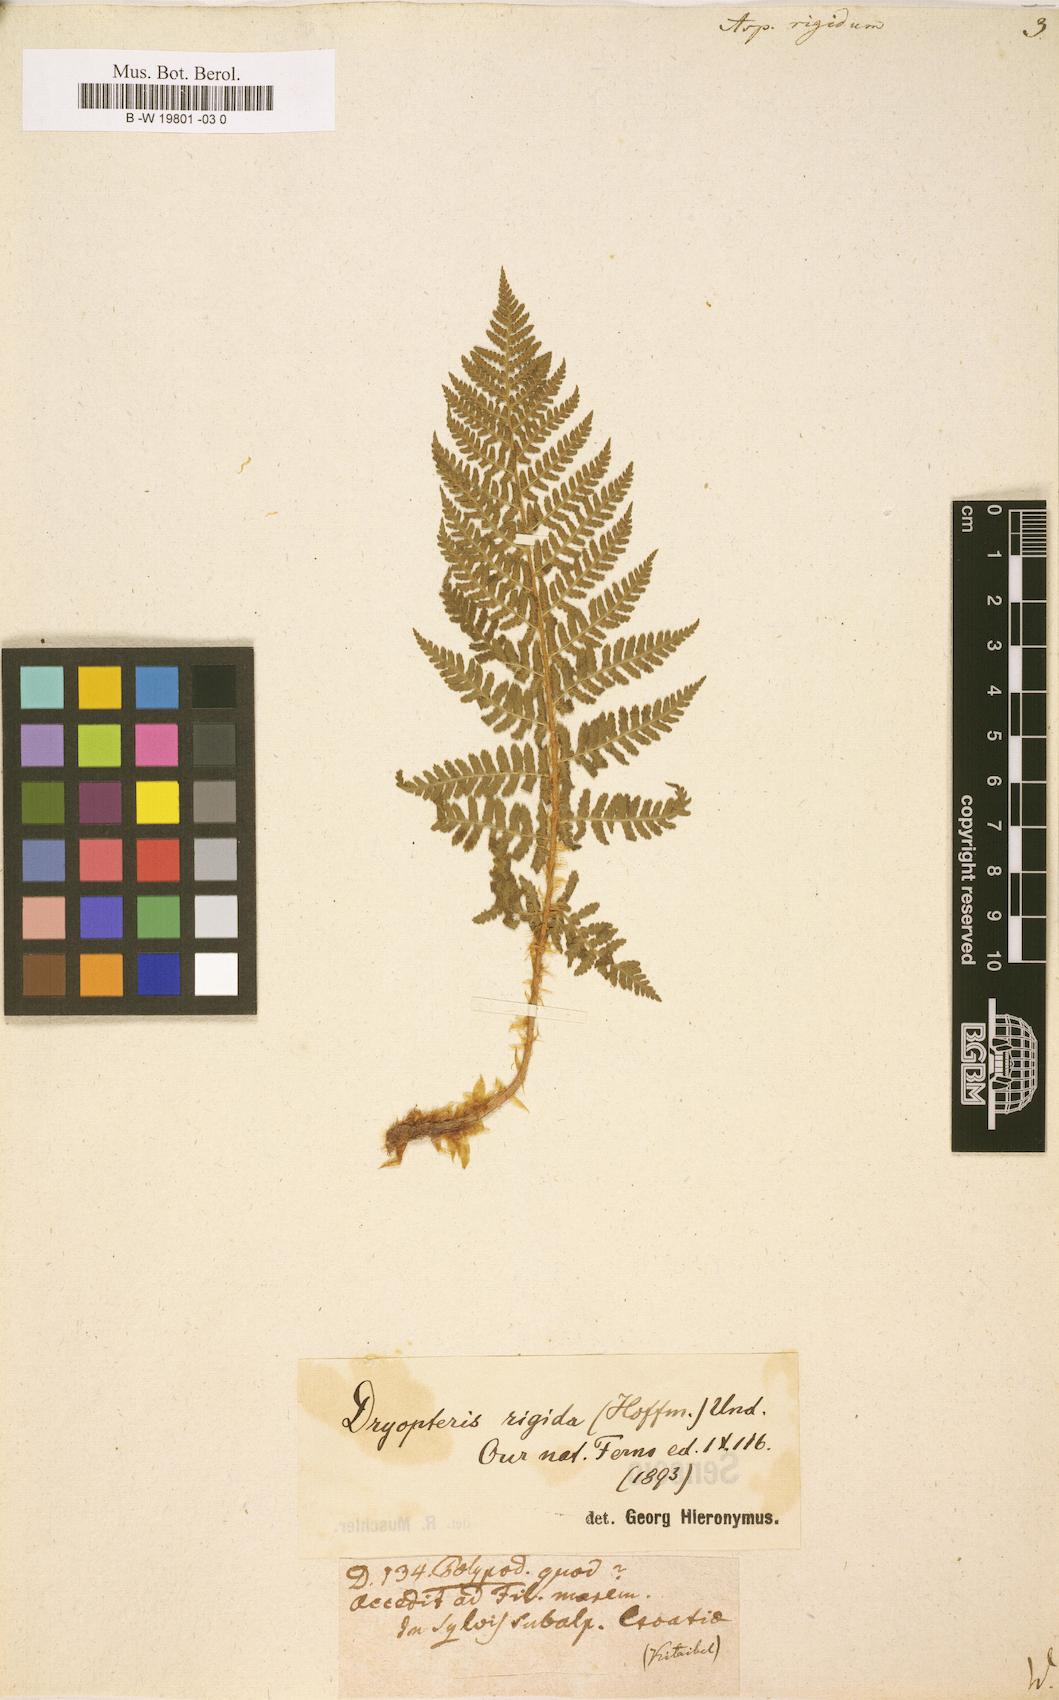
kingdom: Plantae
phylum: Tracheophyta
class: Polypodiopsida
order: Polypodiales
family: Dryopteridaceae
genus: Dryopteris
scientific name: Dryopteris villarii
